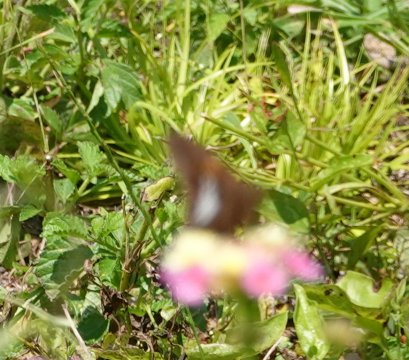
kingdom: Animalia
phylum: Arthropoda
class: Insecta
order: Lepidoptera
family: Hesperiidae
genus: Epargyreus
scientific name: Epargyreus clarus
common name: Silver-spotted Skipper
